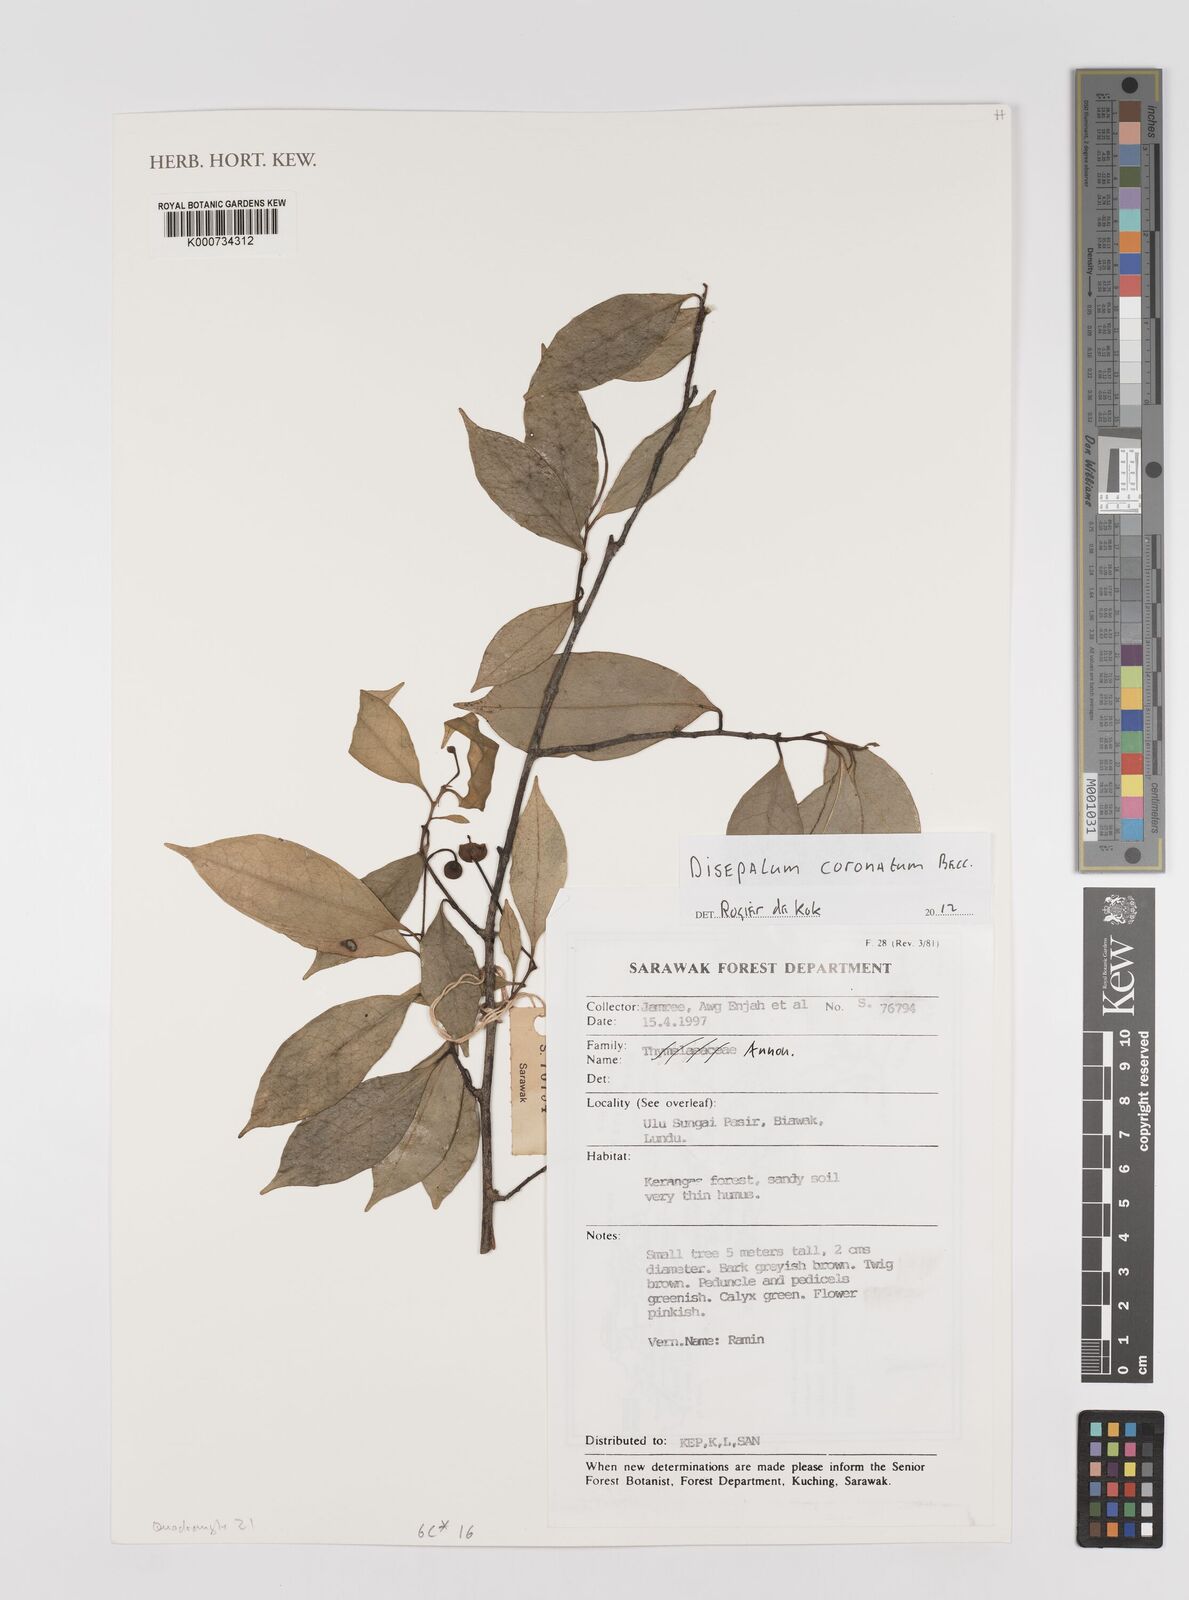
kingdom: Plantae
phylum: Tracheophyta
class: Magnoliopsida
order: Magnoliales
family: Annonaceae
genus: Disepalum
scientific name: Disepalum coronatum
